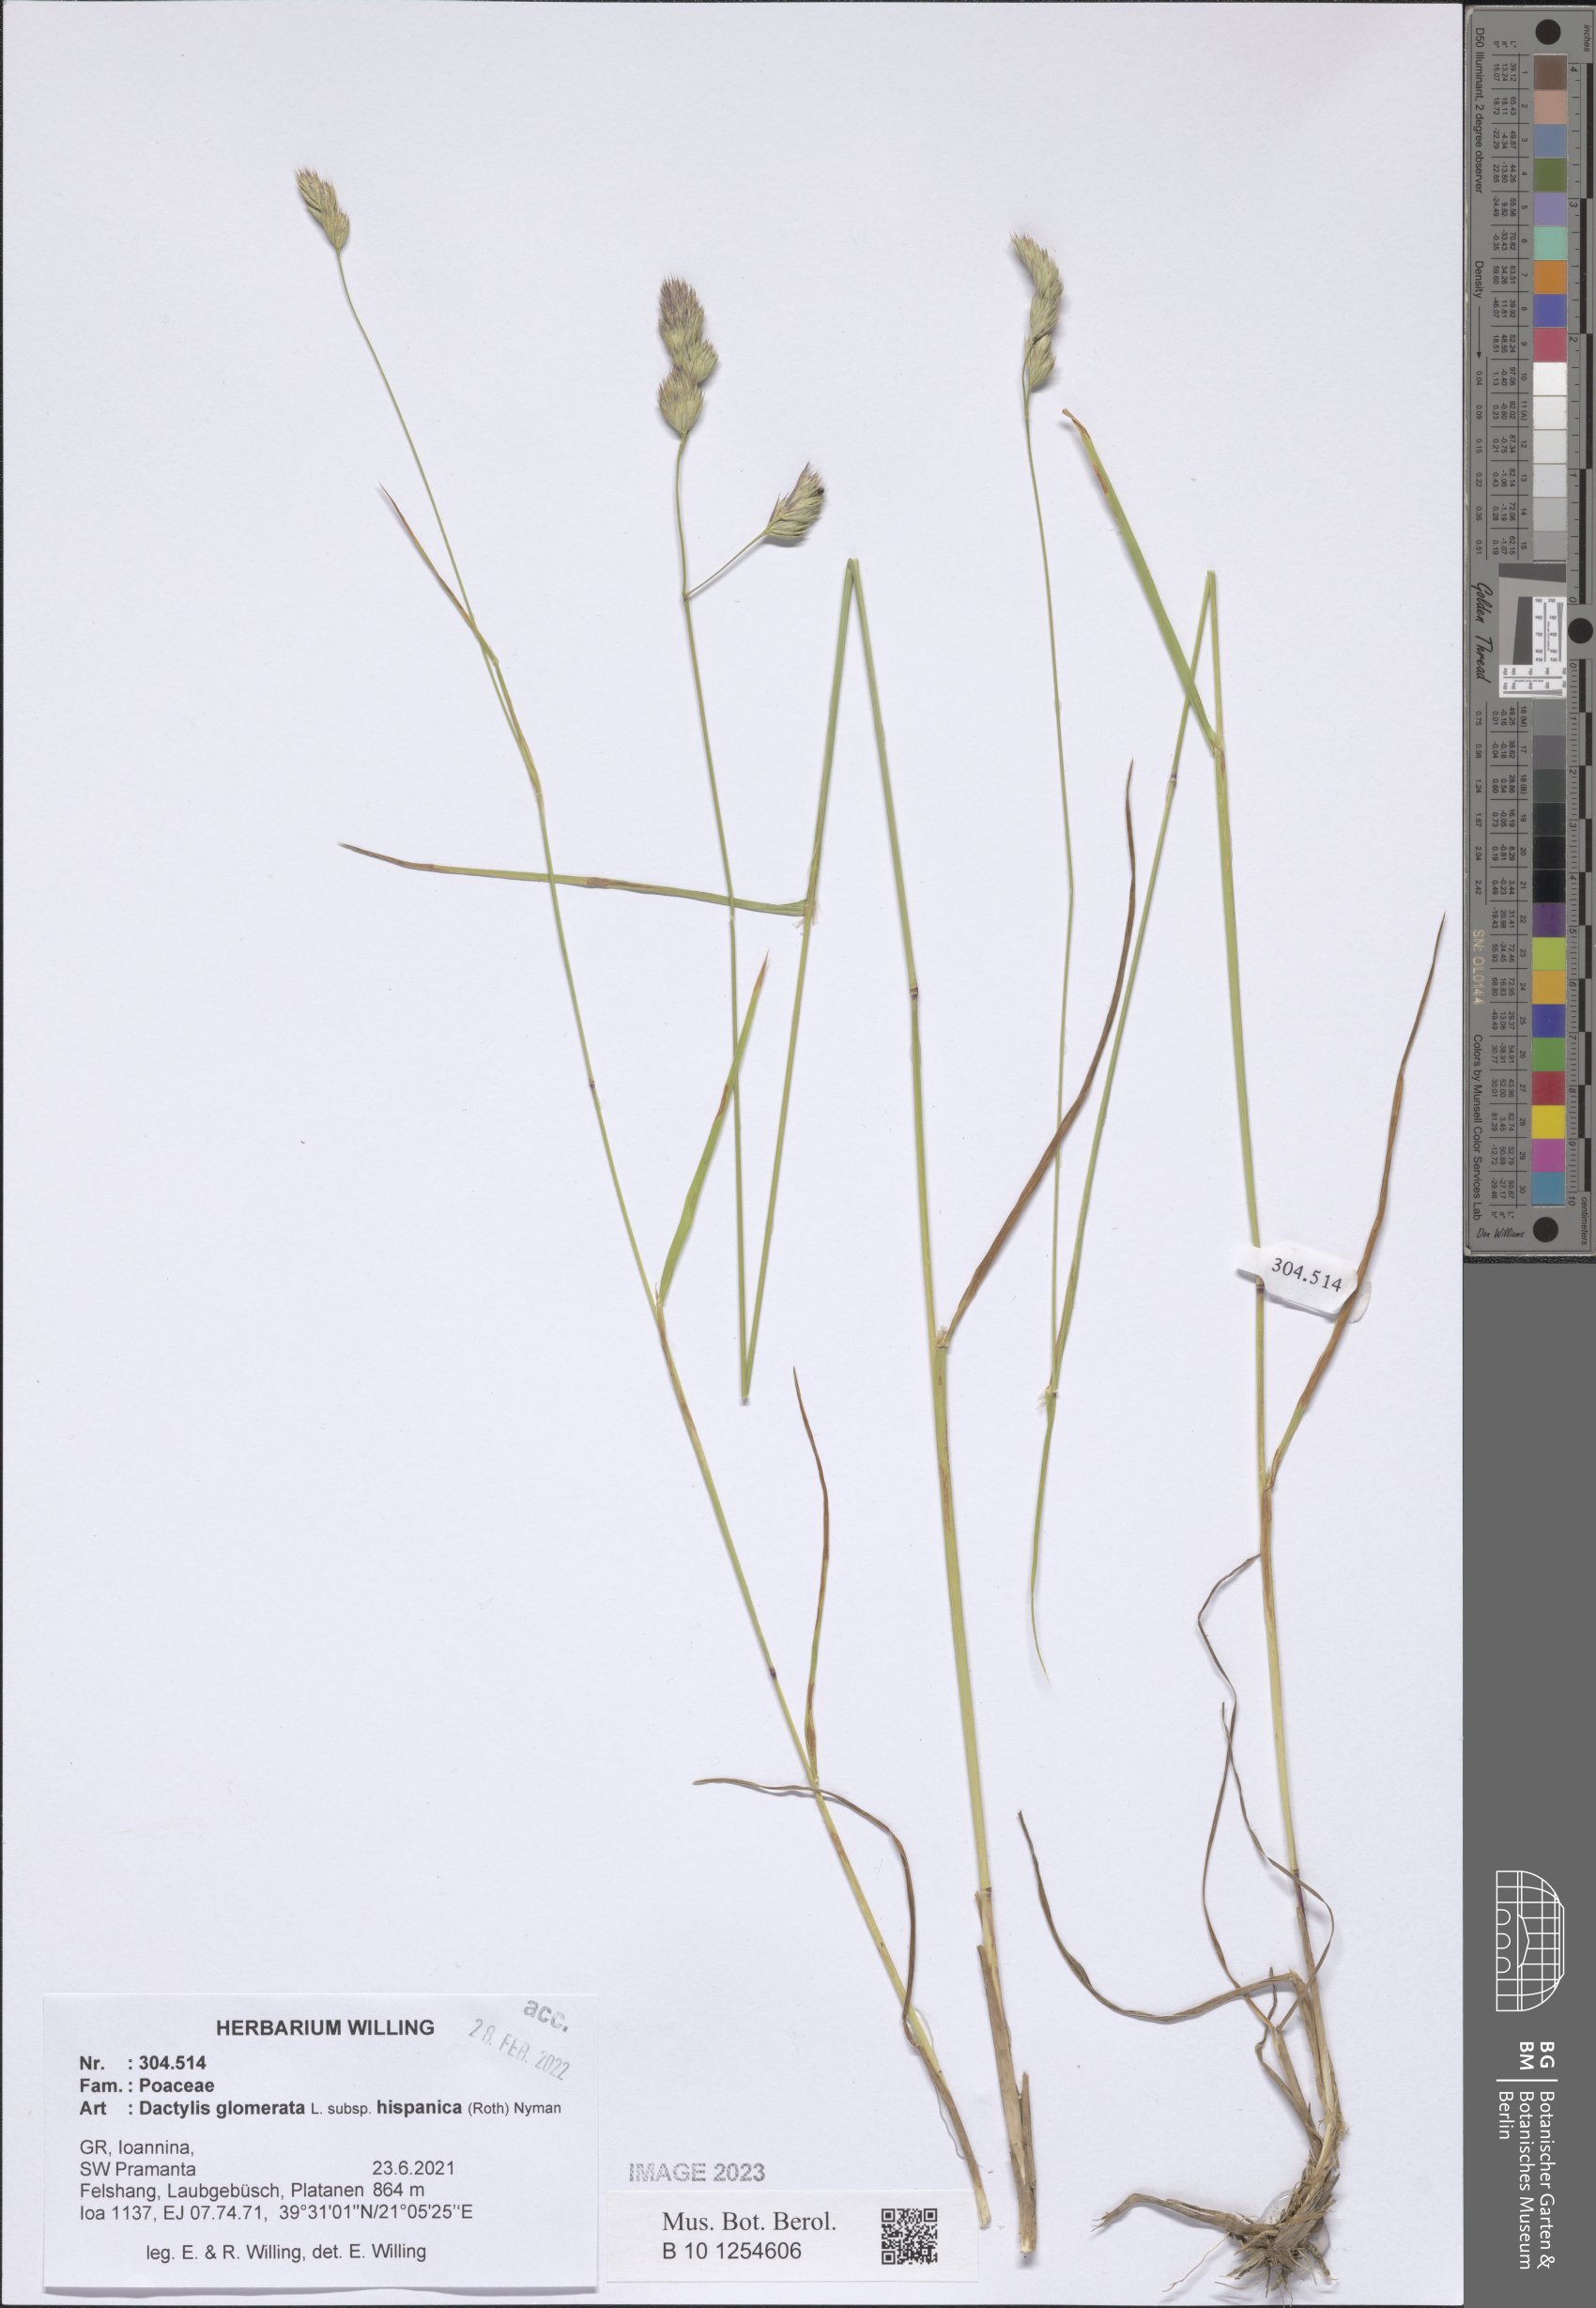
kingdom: Plantae
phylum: Tracheophyta
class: Liliopsida
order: Poales
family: Poaceae
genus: Dactylis
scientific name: Dactylis glomerata
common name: Orchardgrass
